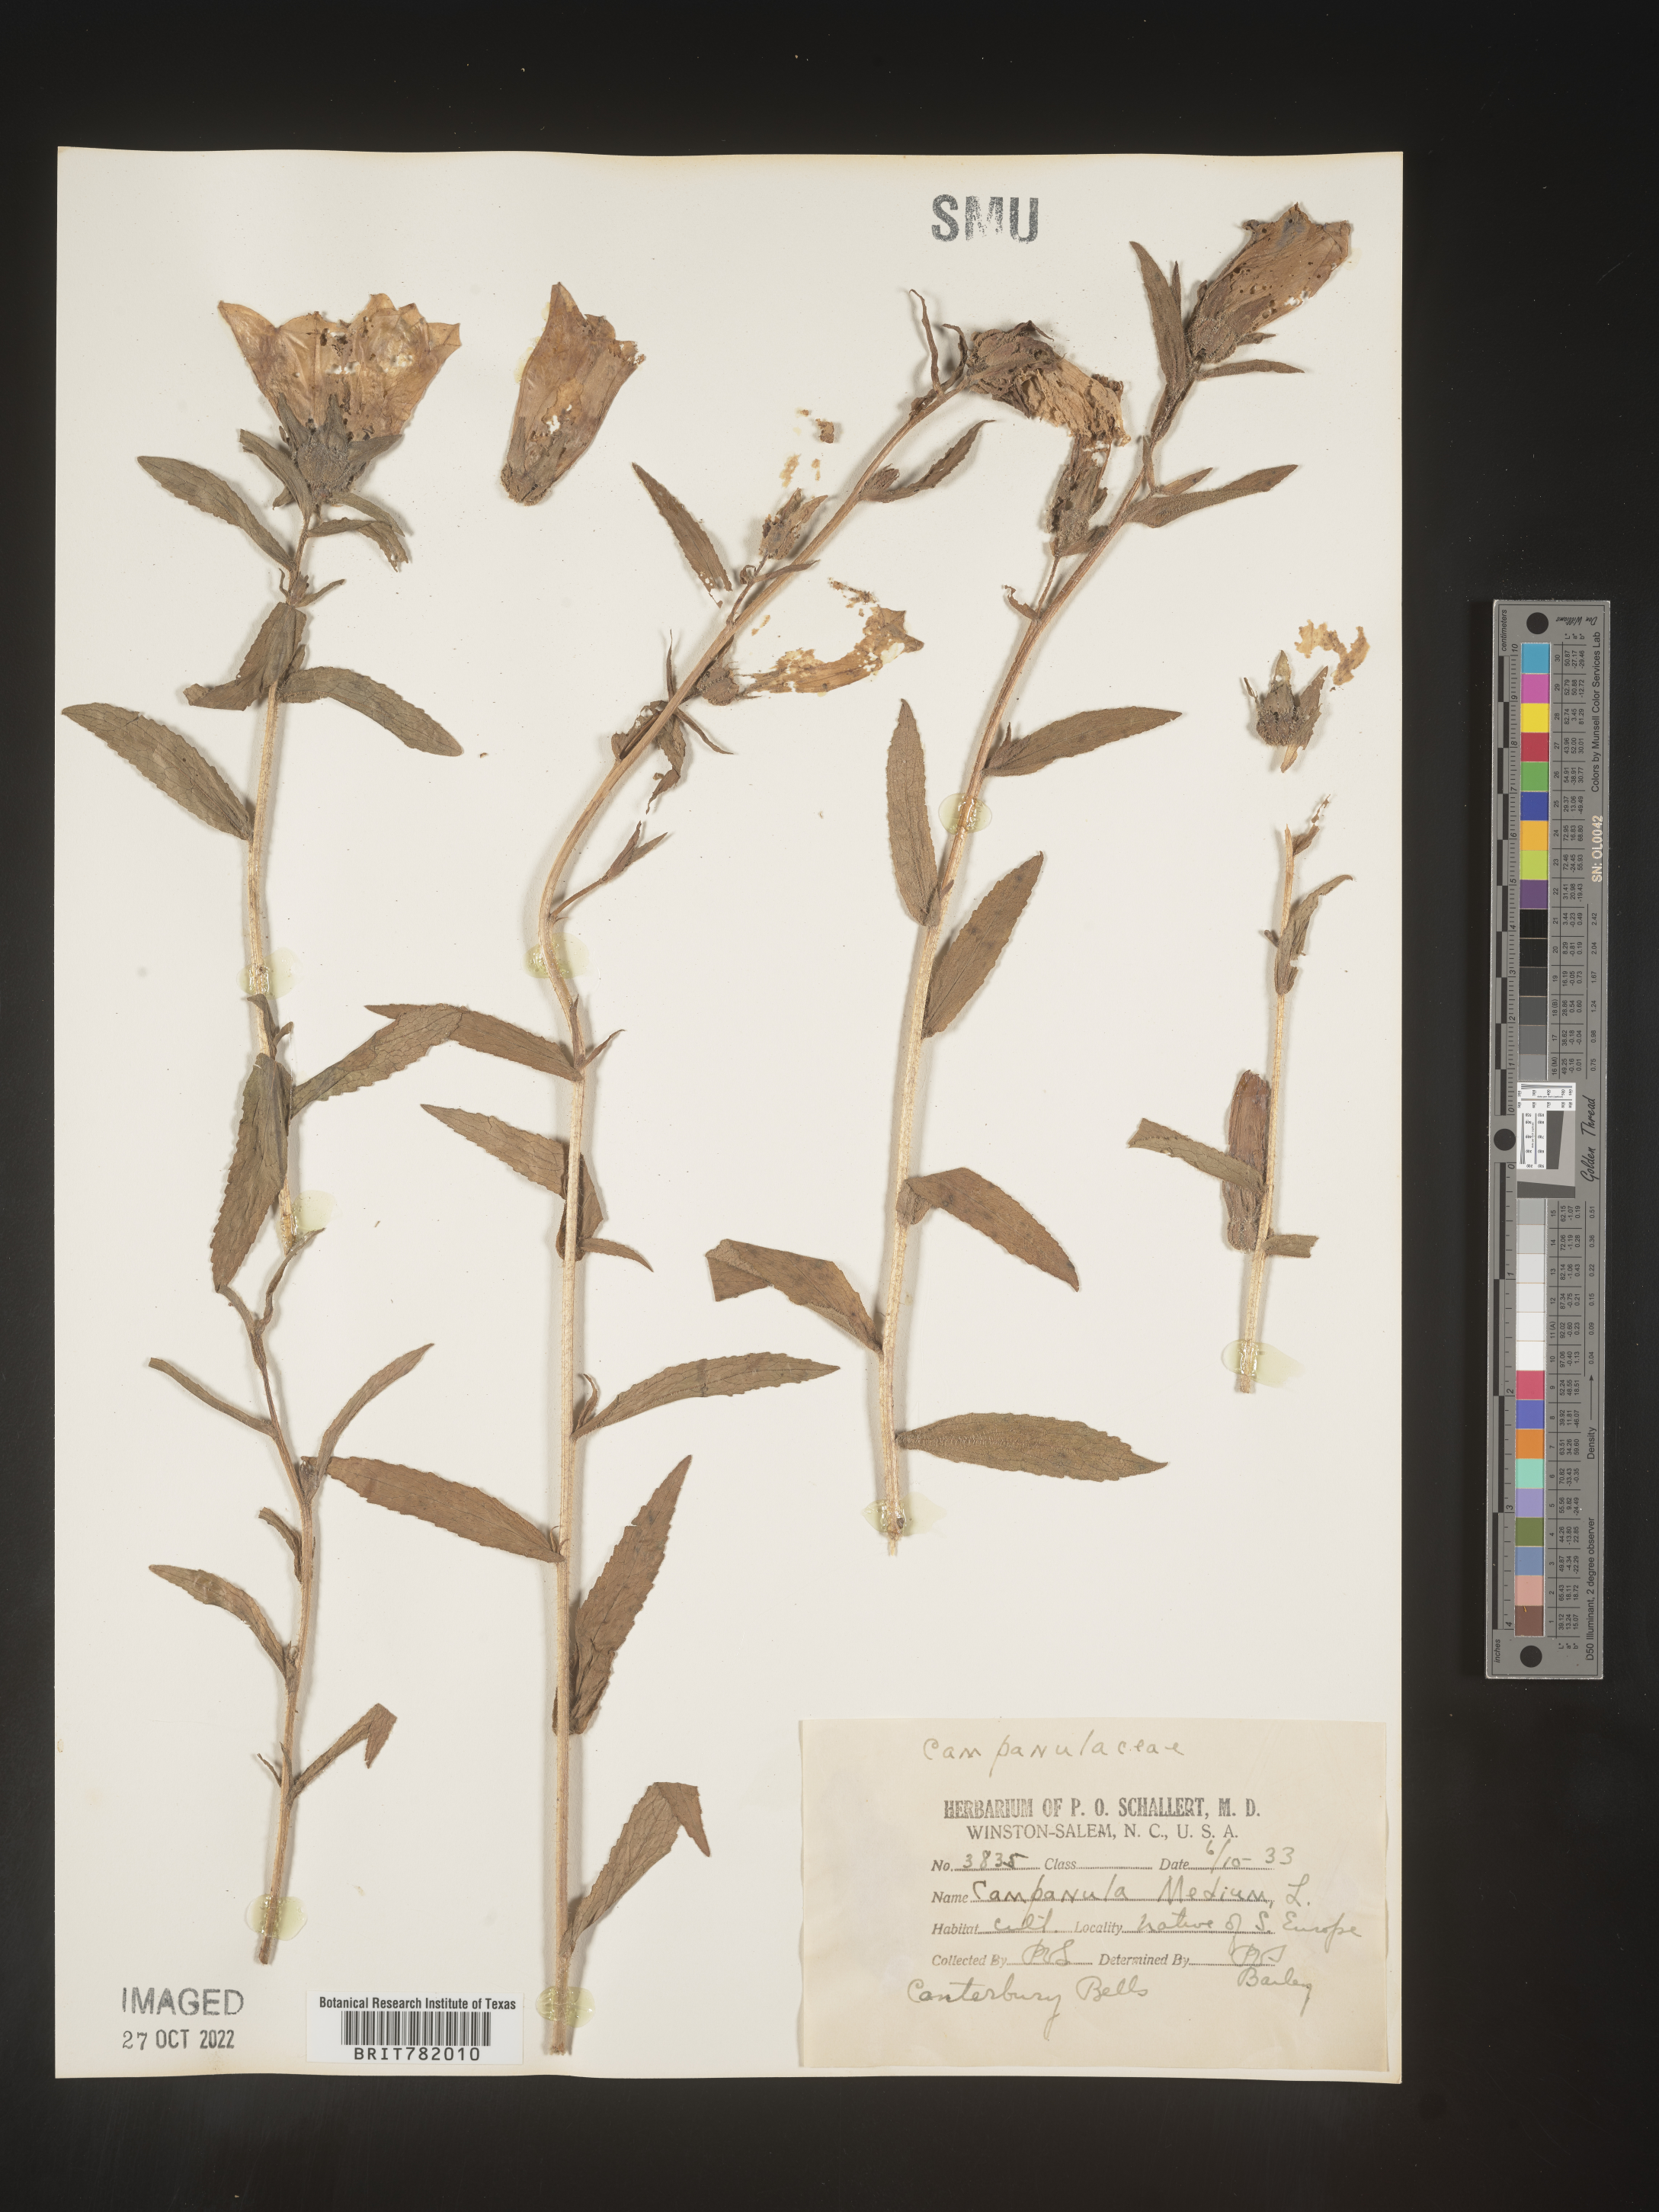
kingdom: Plantae
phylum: Tracheophyta
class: Magnoliopsida
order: Asterales
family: Campanulaceae
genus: Campanula
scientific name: Campanula
